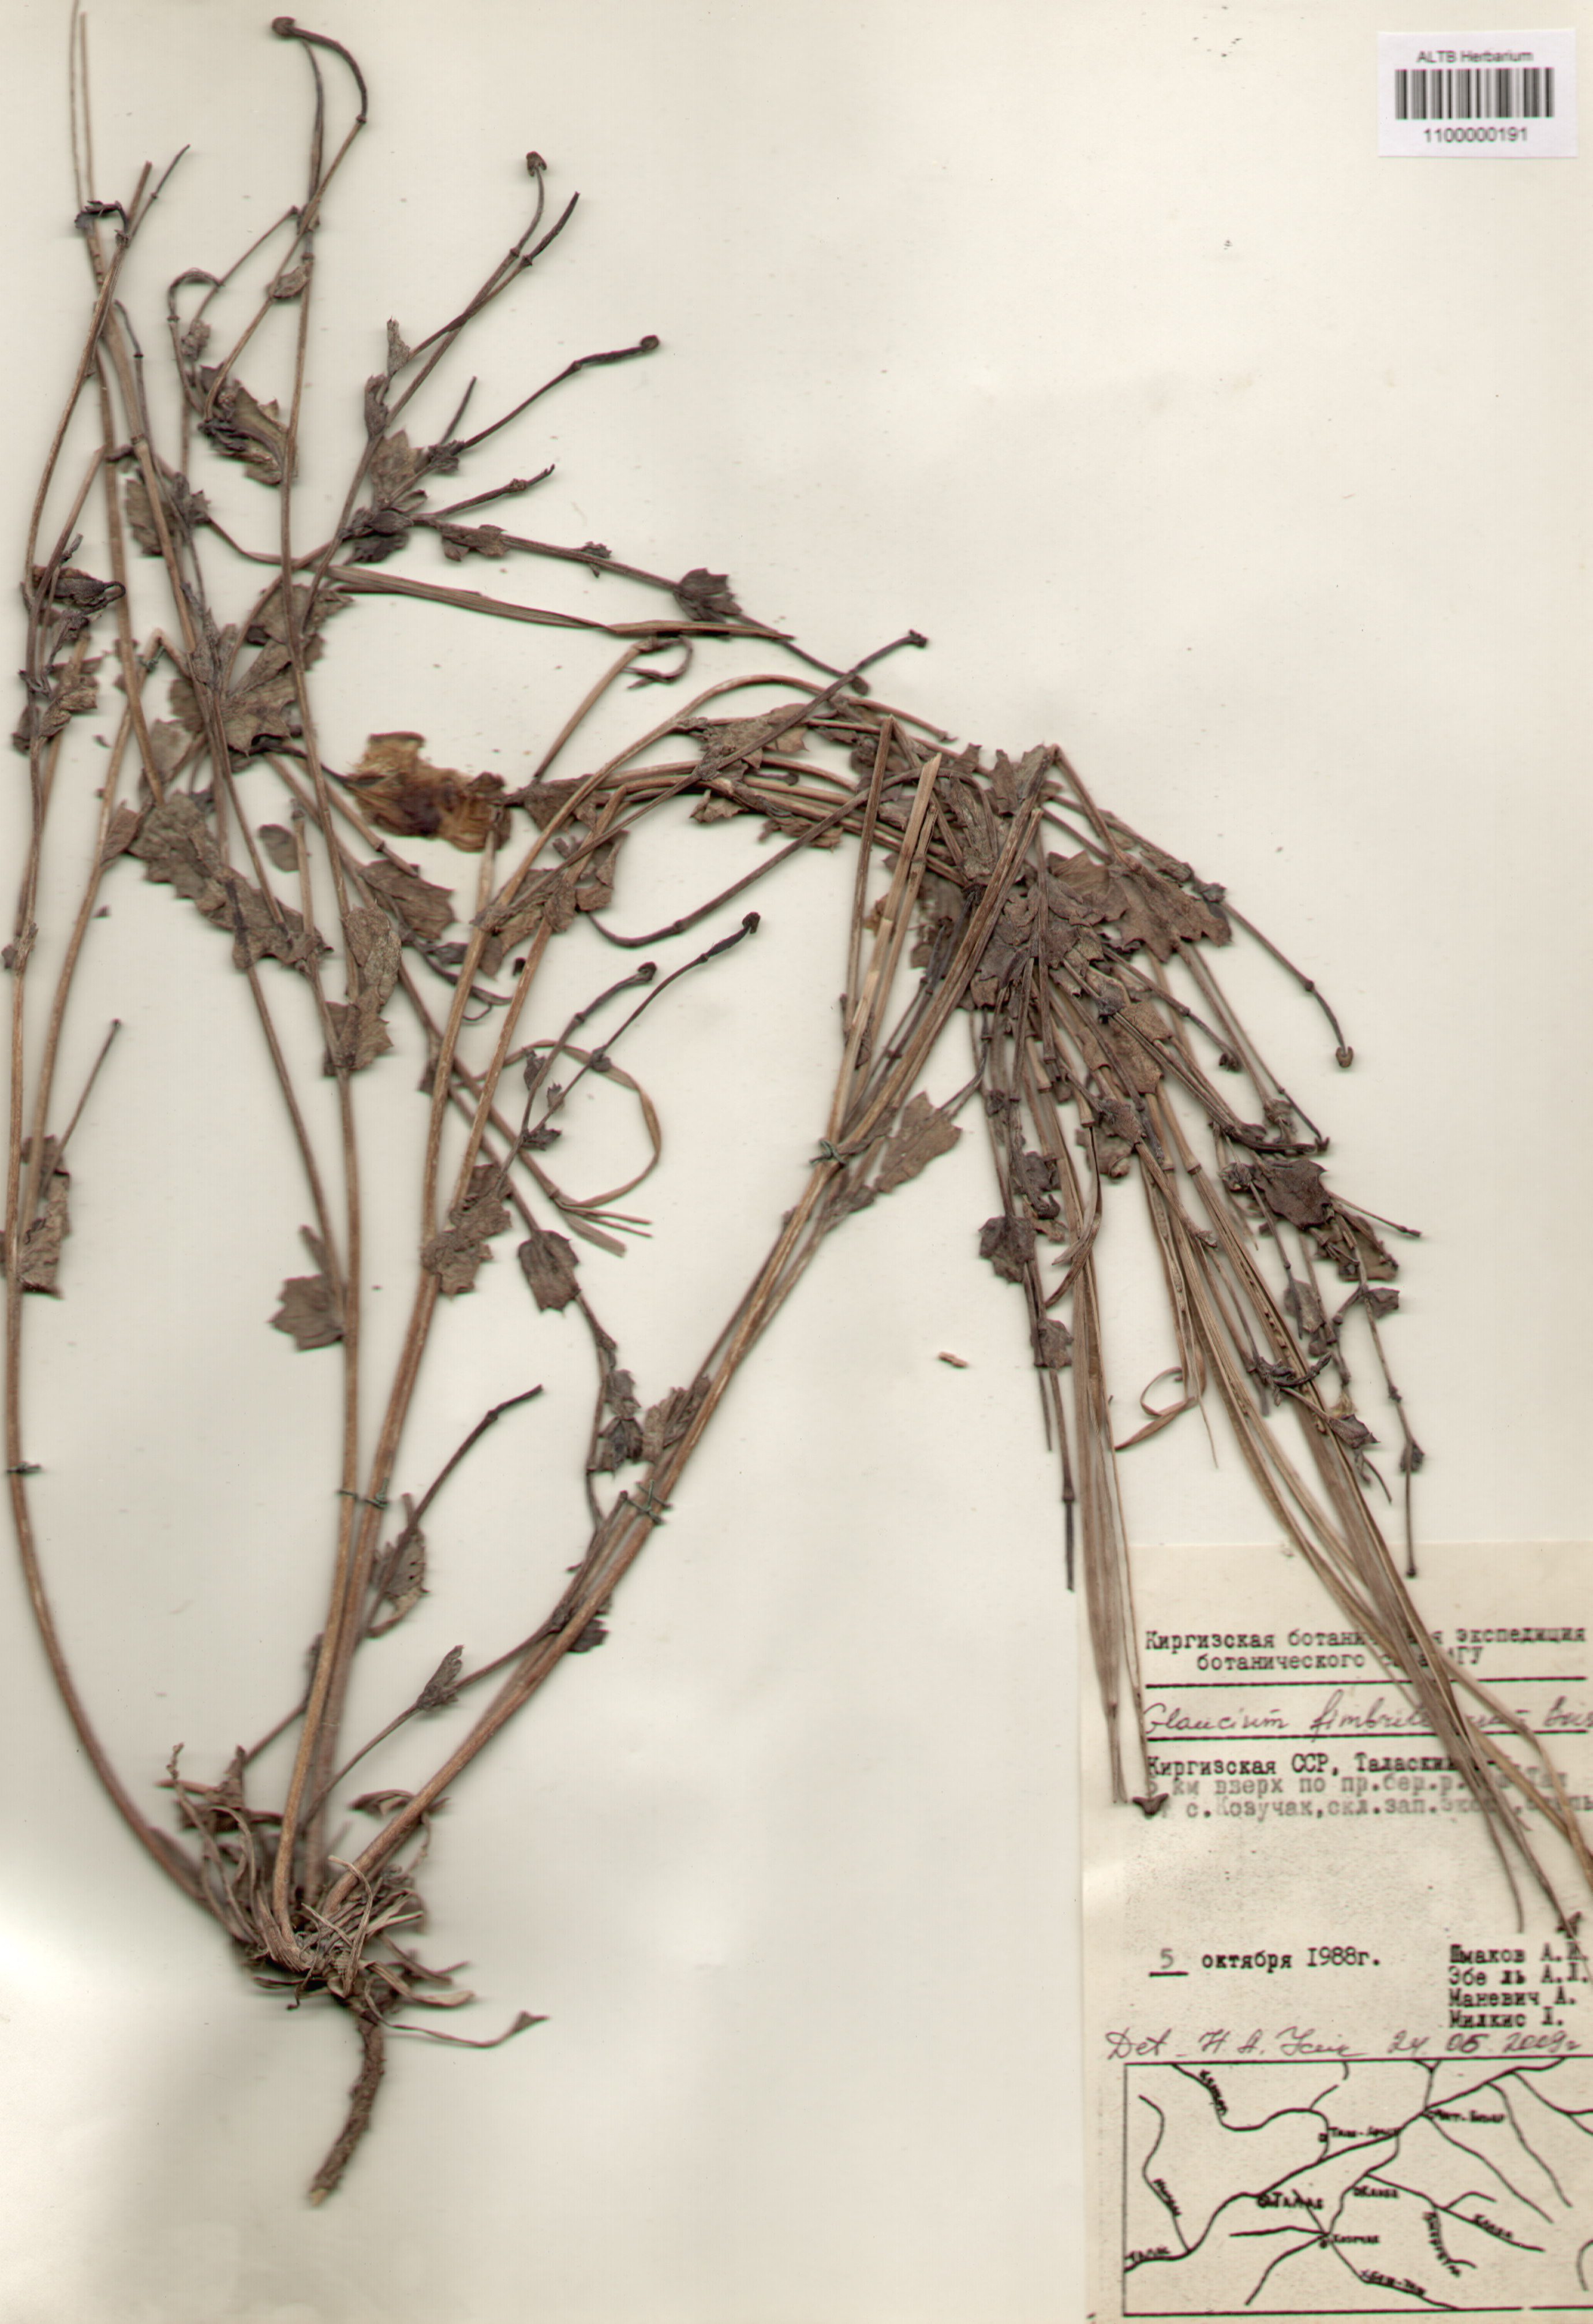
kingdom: Plantae
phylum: Tracheophyta
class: Magnoliopsida
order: Ranunculales
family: Papaveraceae
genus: Glaucium
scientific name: Glaucium fimbrilligerum
